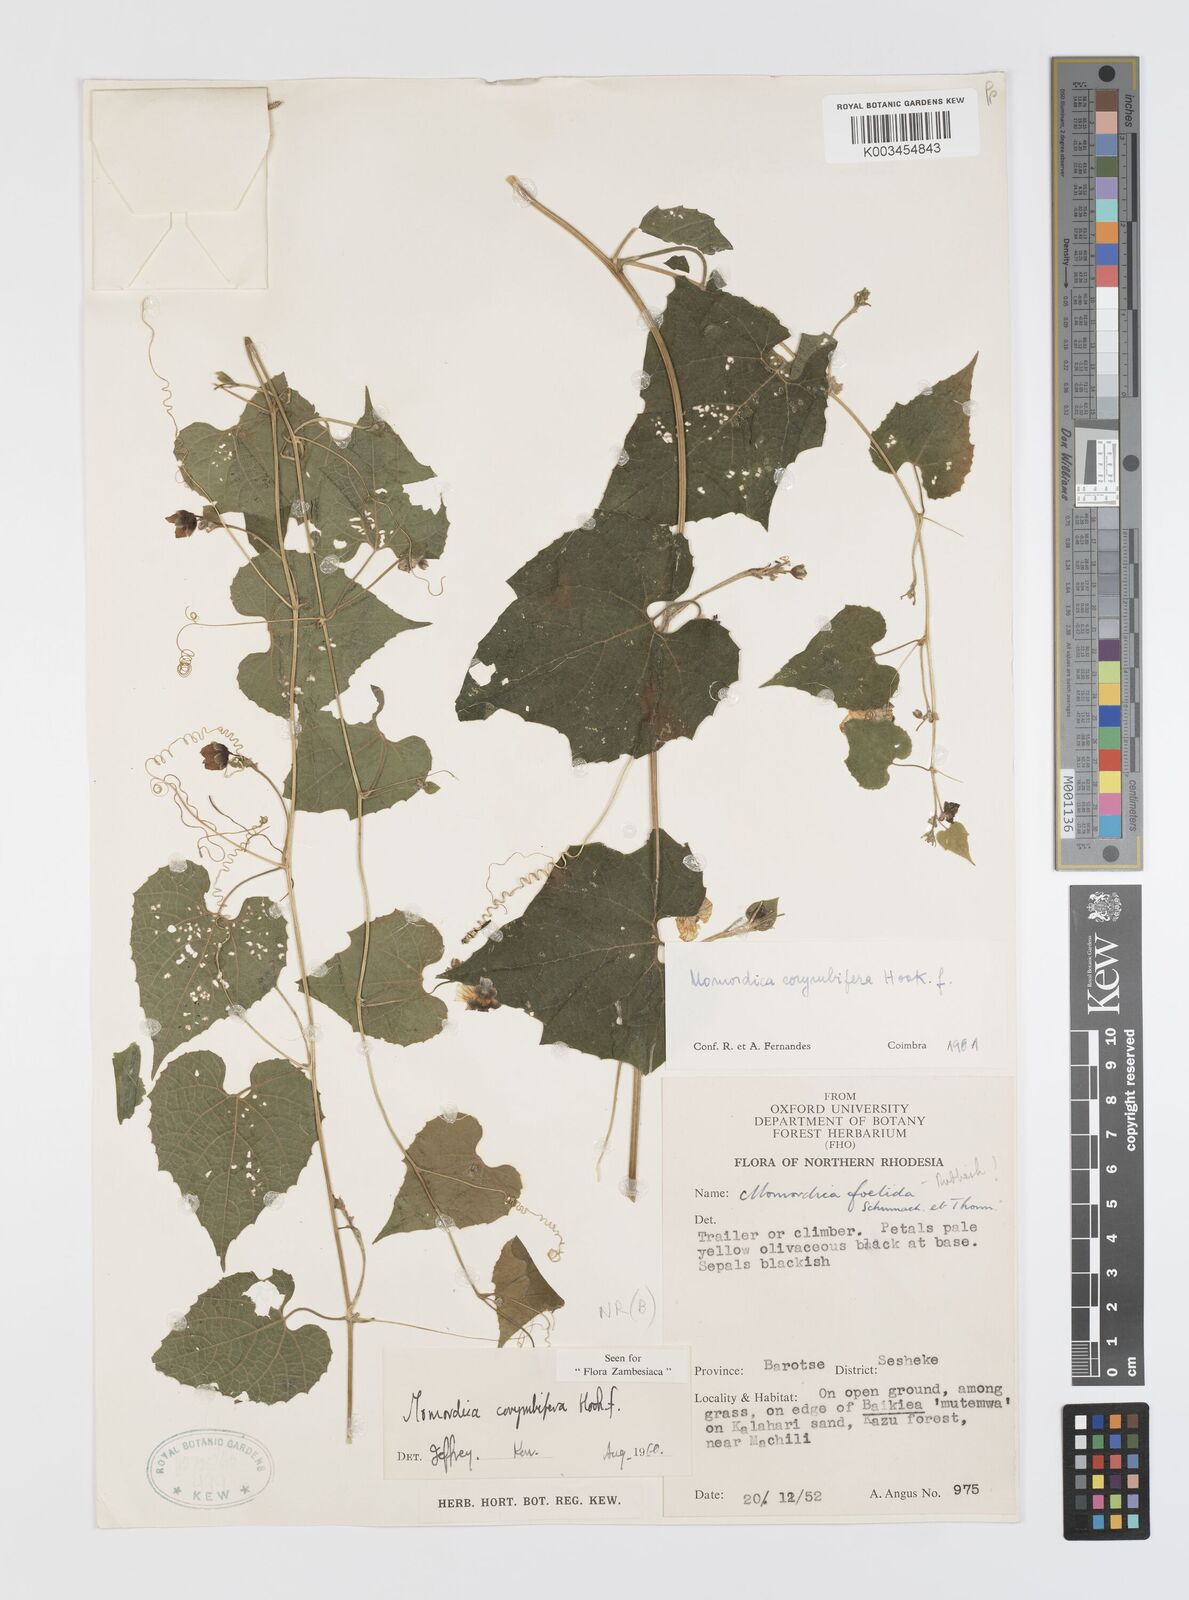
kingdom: Plantae
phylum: Tracheophyta
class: Magnoliopsida
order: Cucurbitales
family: Cucurbitaceae
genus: Momordica
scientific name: Momordica corymbifera
